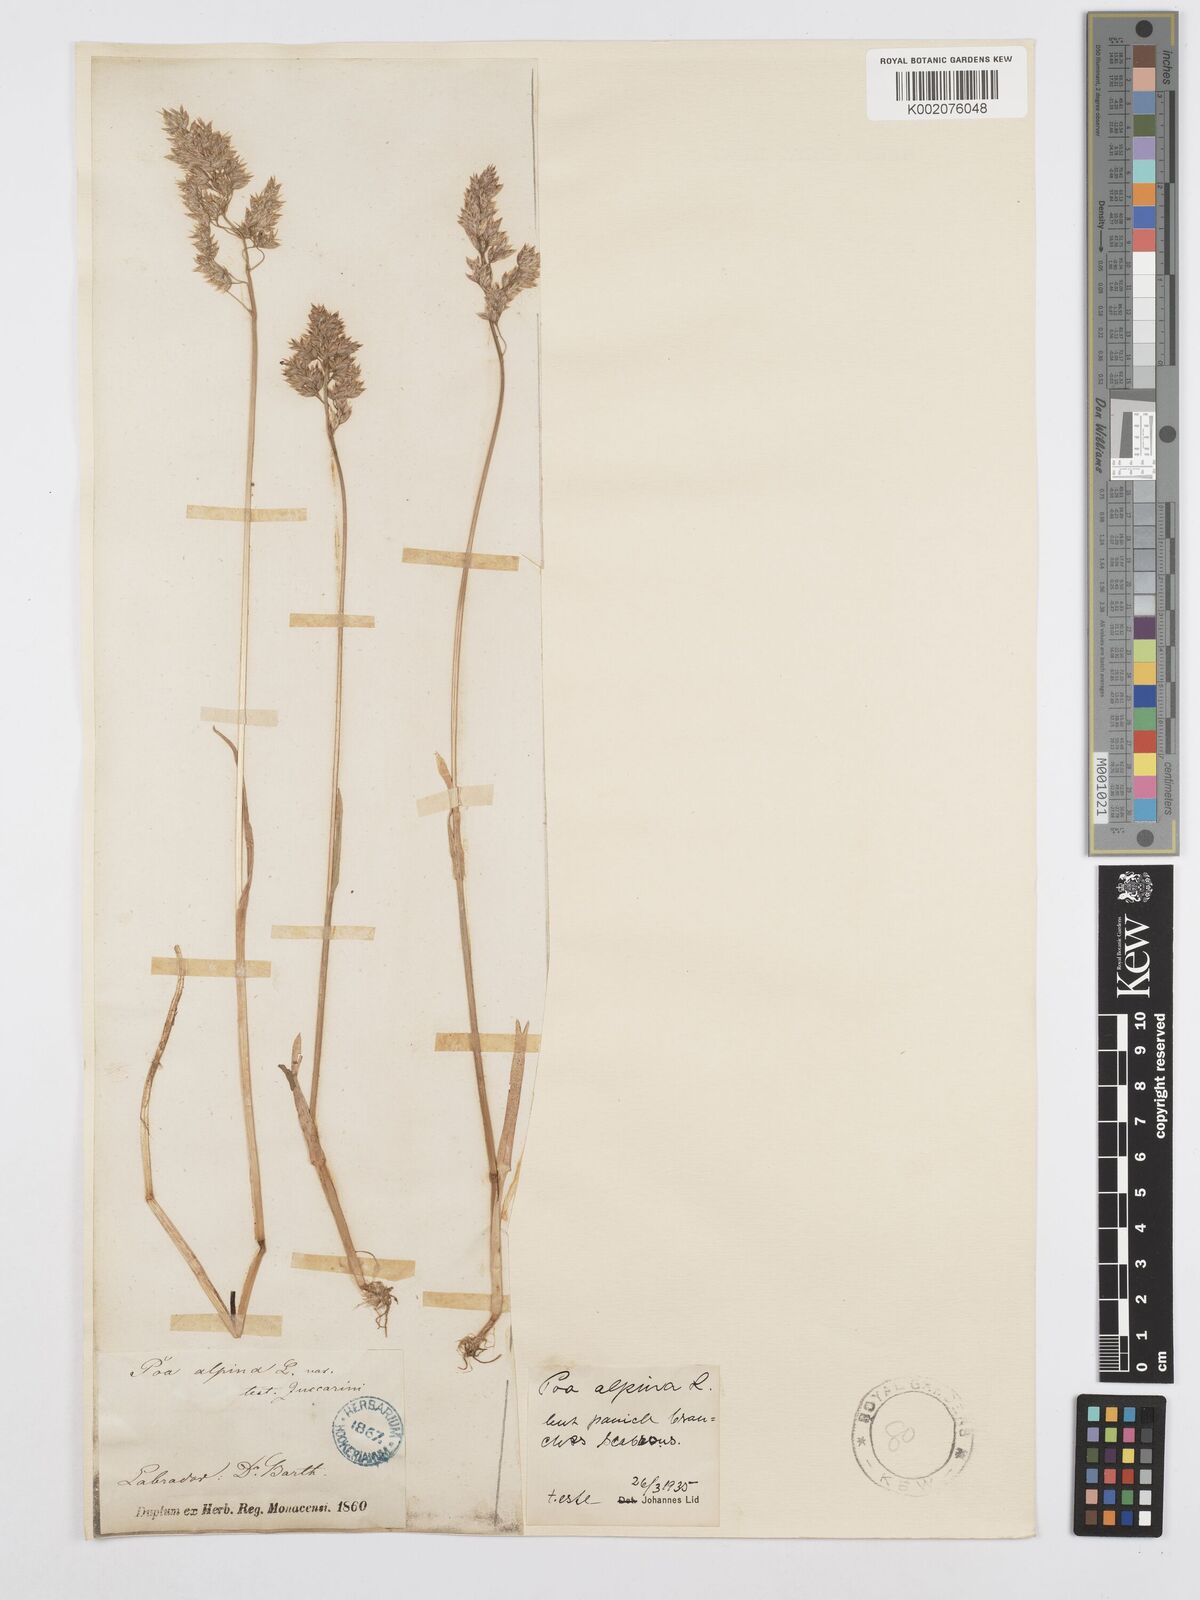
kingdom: Plantae
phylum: Tracheophyta
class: Liliopsida
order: Poales
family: Poaceae
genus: Poa
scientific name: Poa alpina
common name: Alpine bluegrass
